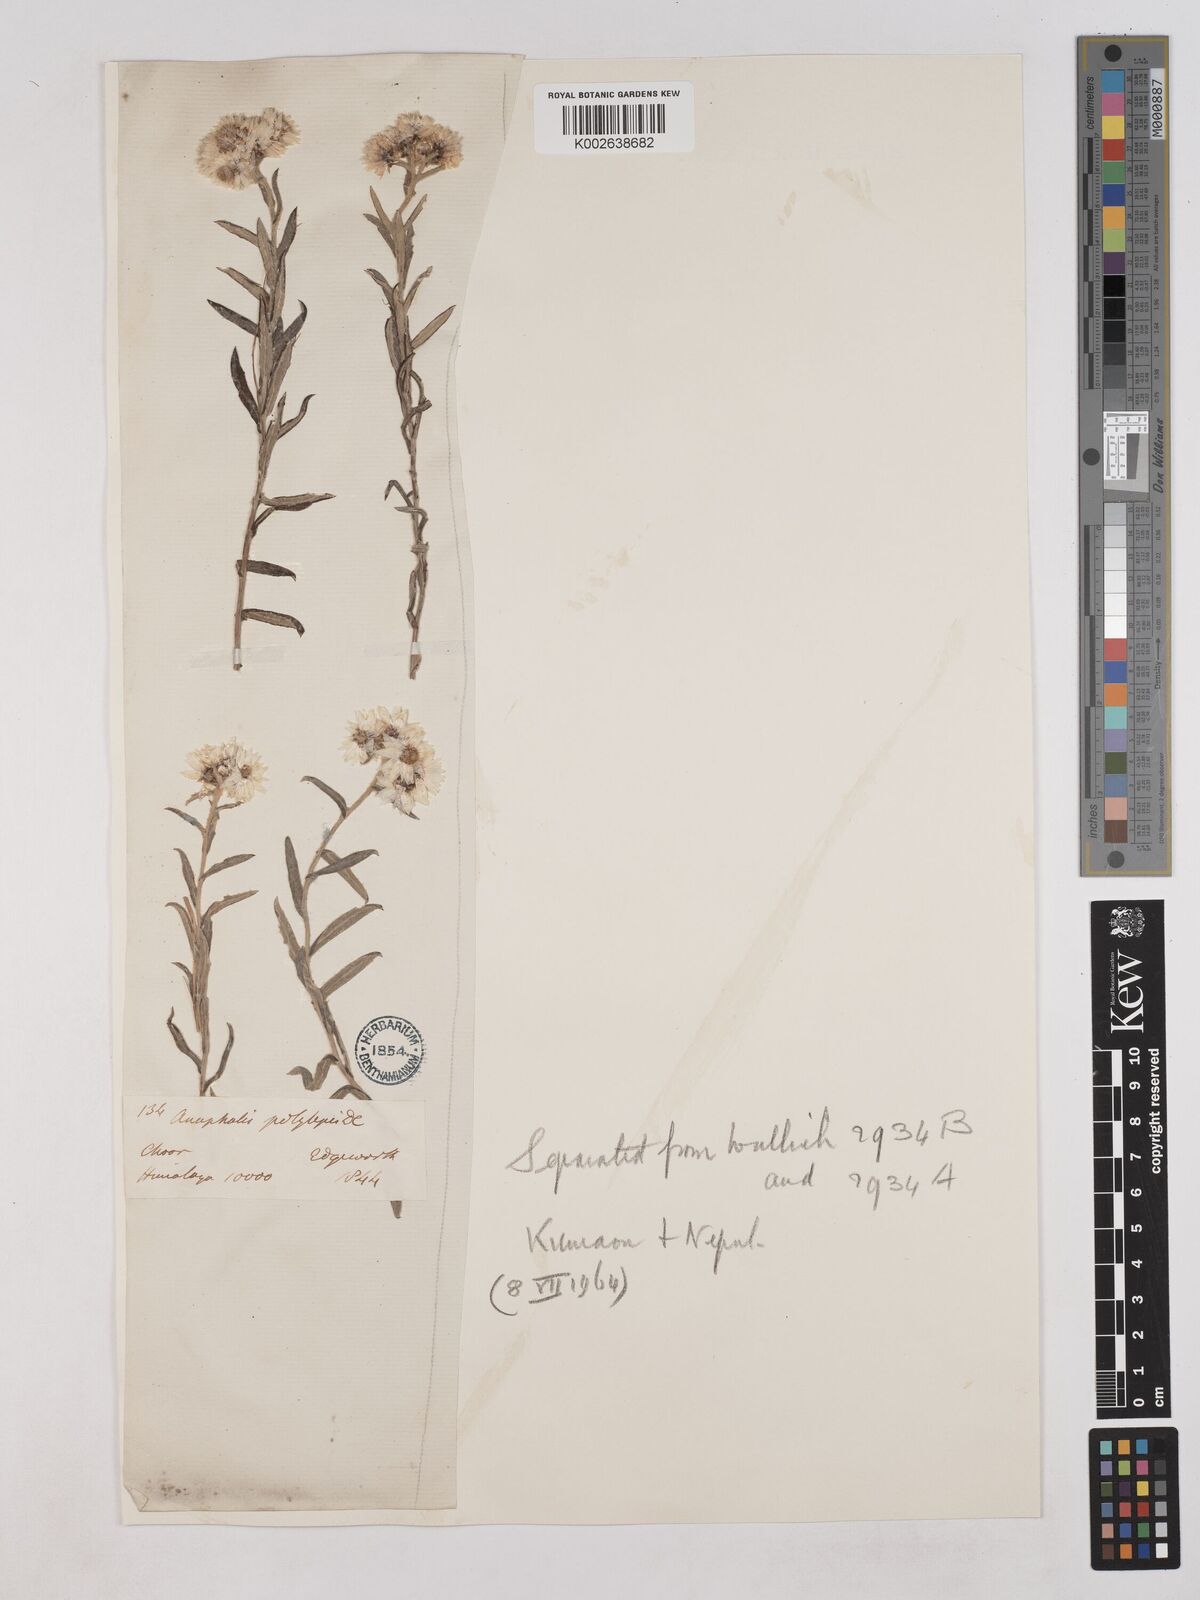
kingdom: Plantae
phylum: Tracheophyta
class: Magnoliopsida
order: Asterales
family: Asteraceae
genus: Anaphalioides
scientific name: Anaphalioides trinervis
